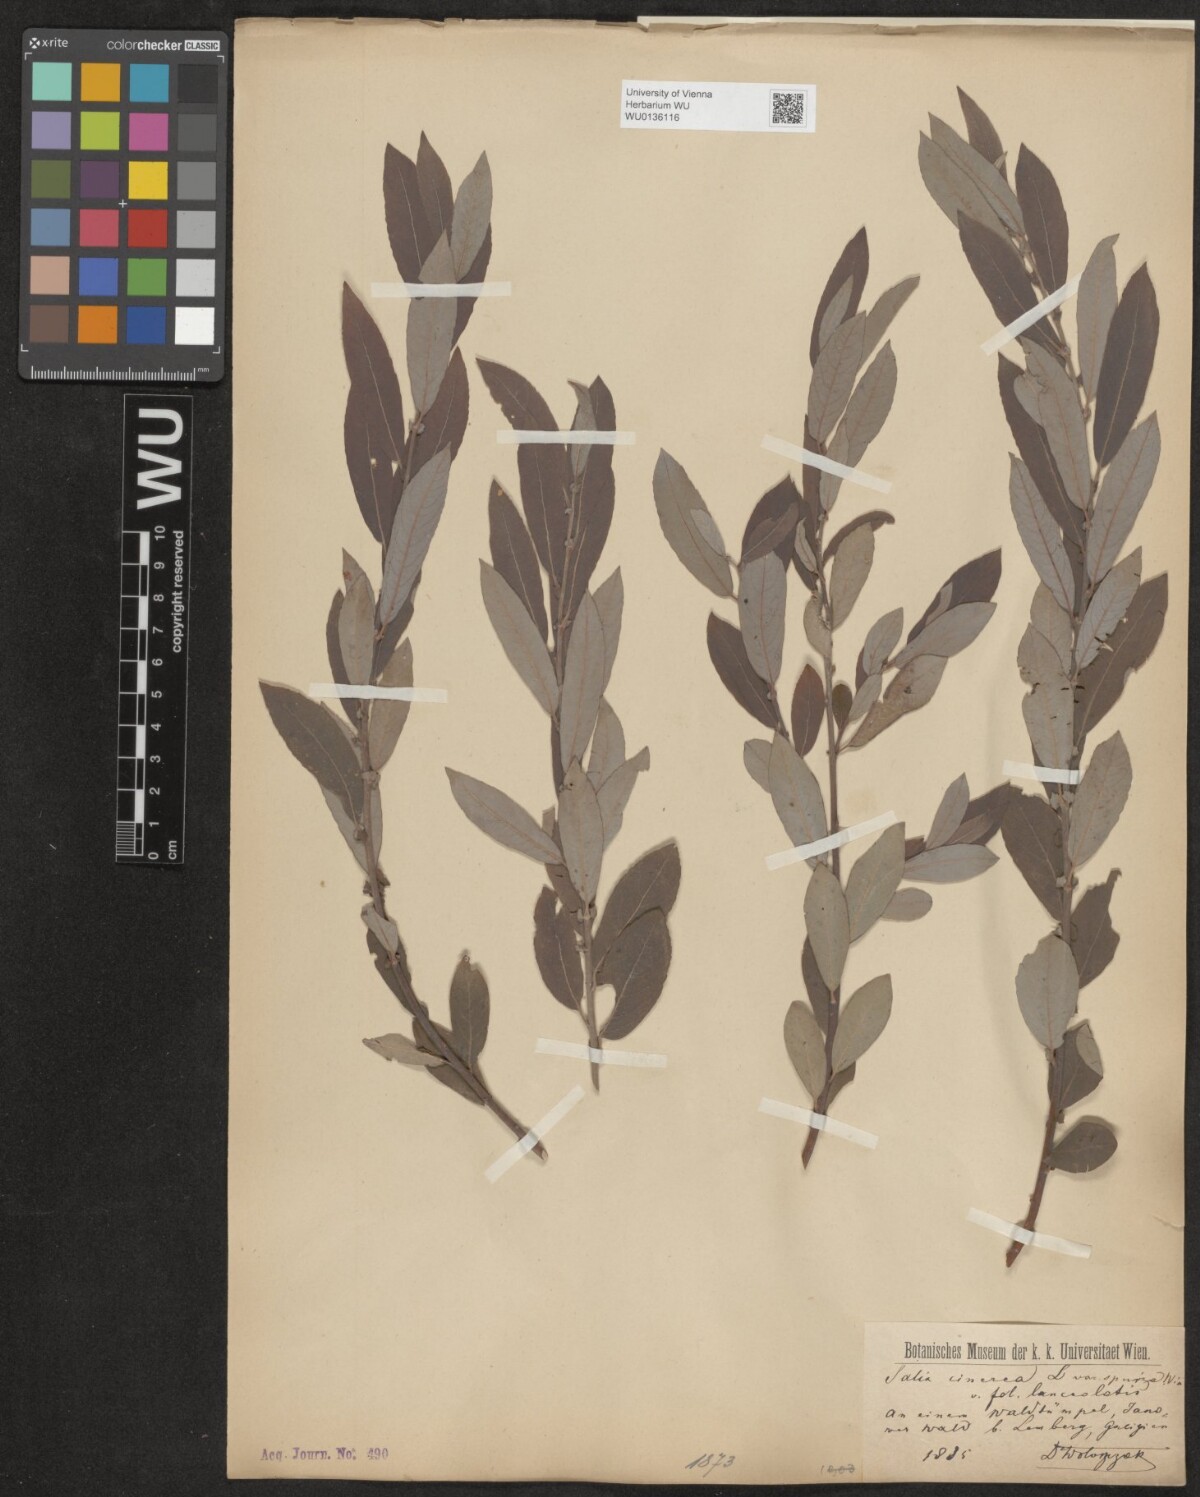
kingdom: Plantae
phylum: Tracheophyta
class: Magnoliopsida
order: Malpighiales
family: Salicaceae
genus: Salix
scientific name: Salix cinerea
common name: Common sallow
